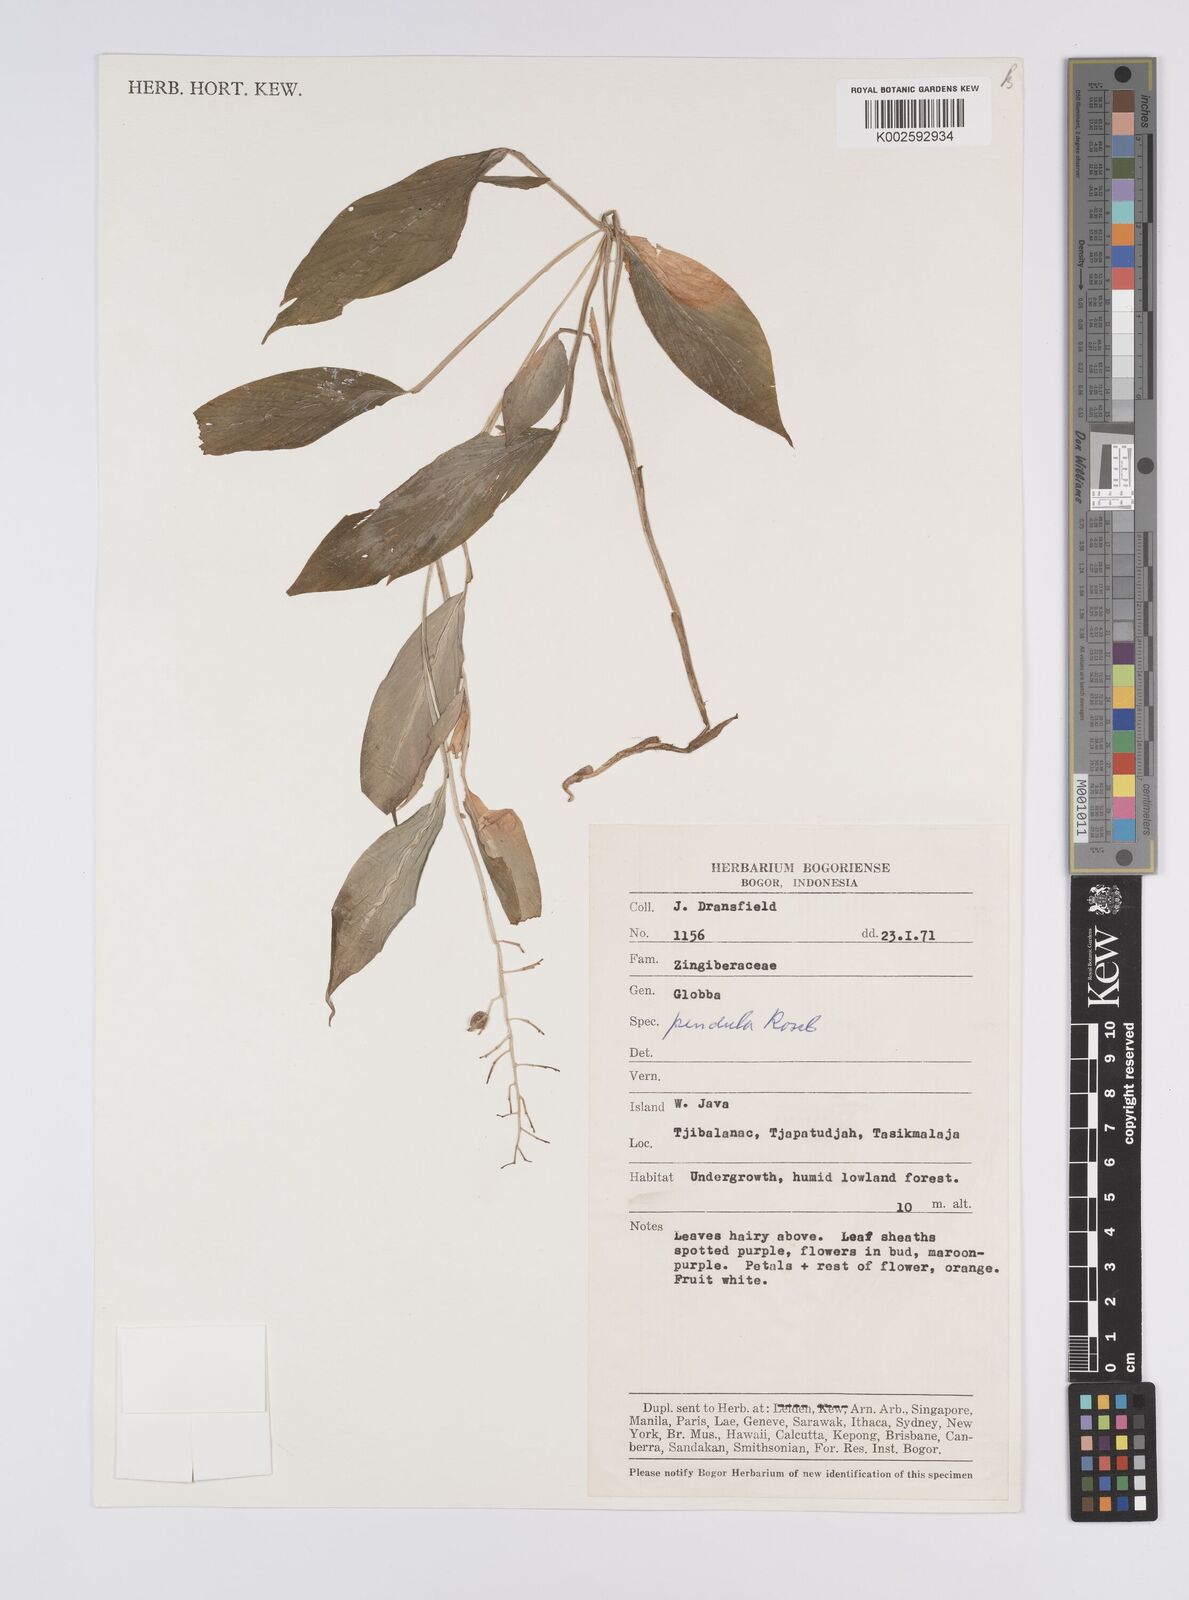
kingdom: Plantae
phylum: Tracheophyta
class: Liliopsida
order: Zingiberales
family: Zingiberaceae
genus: Globba
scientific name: Globba pendula
